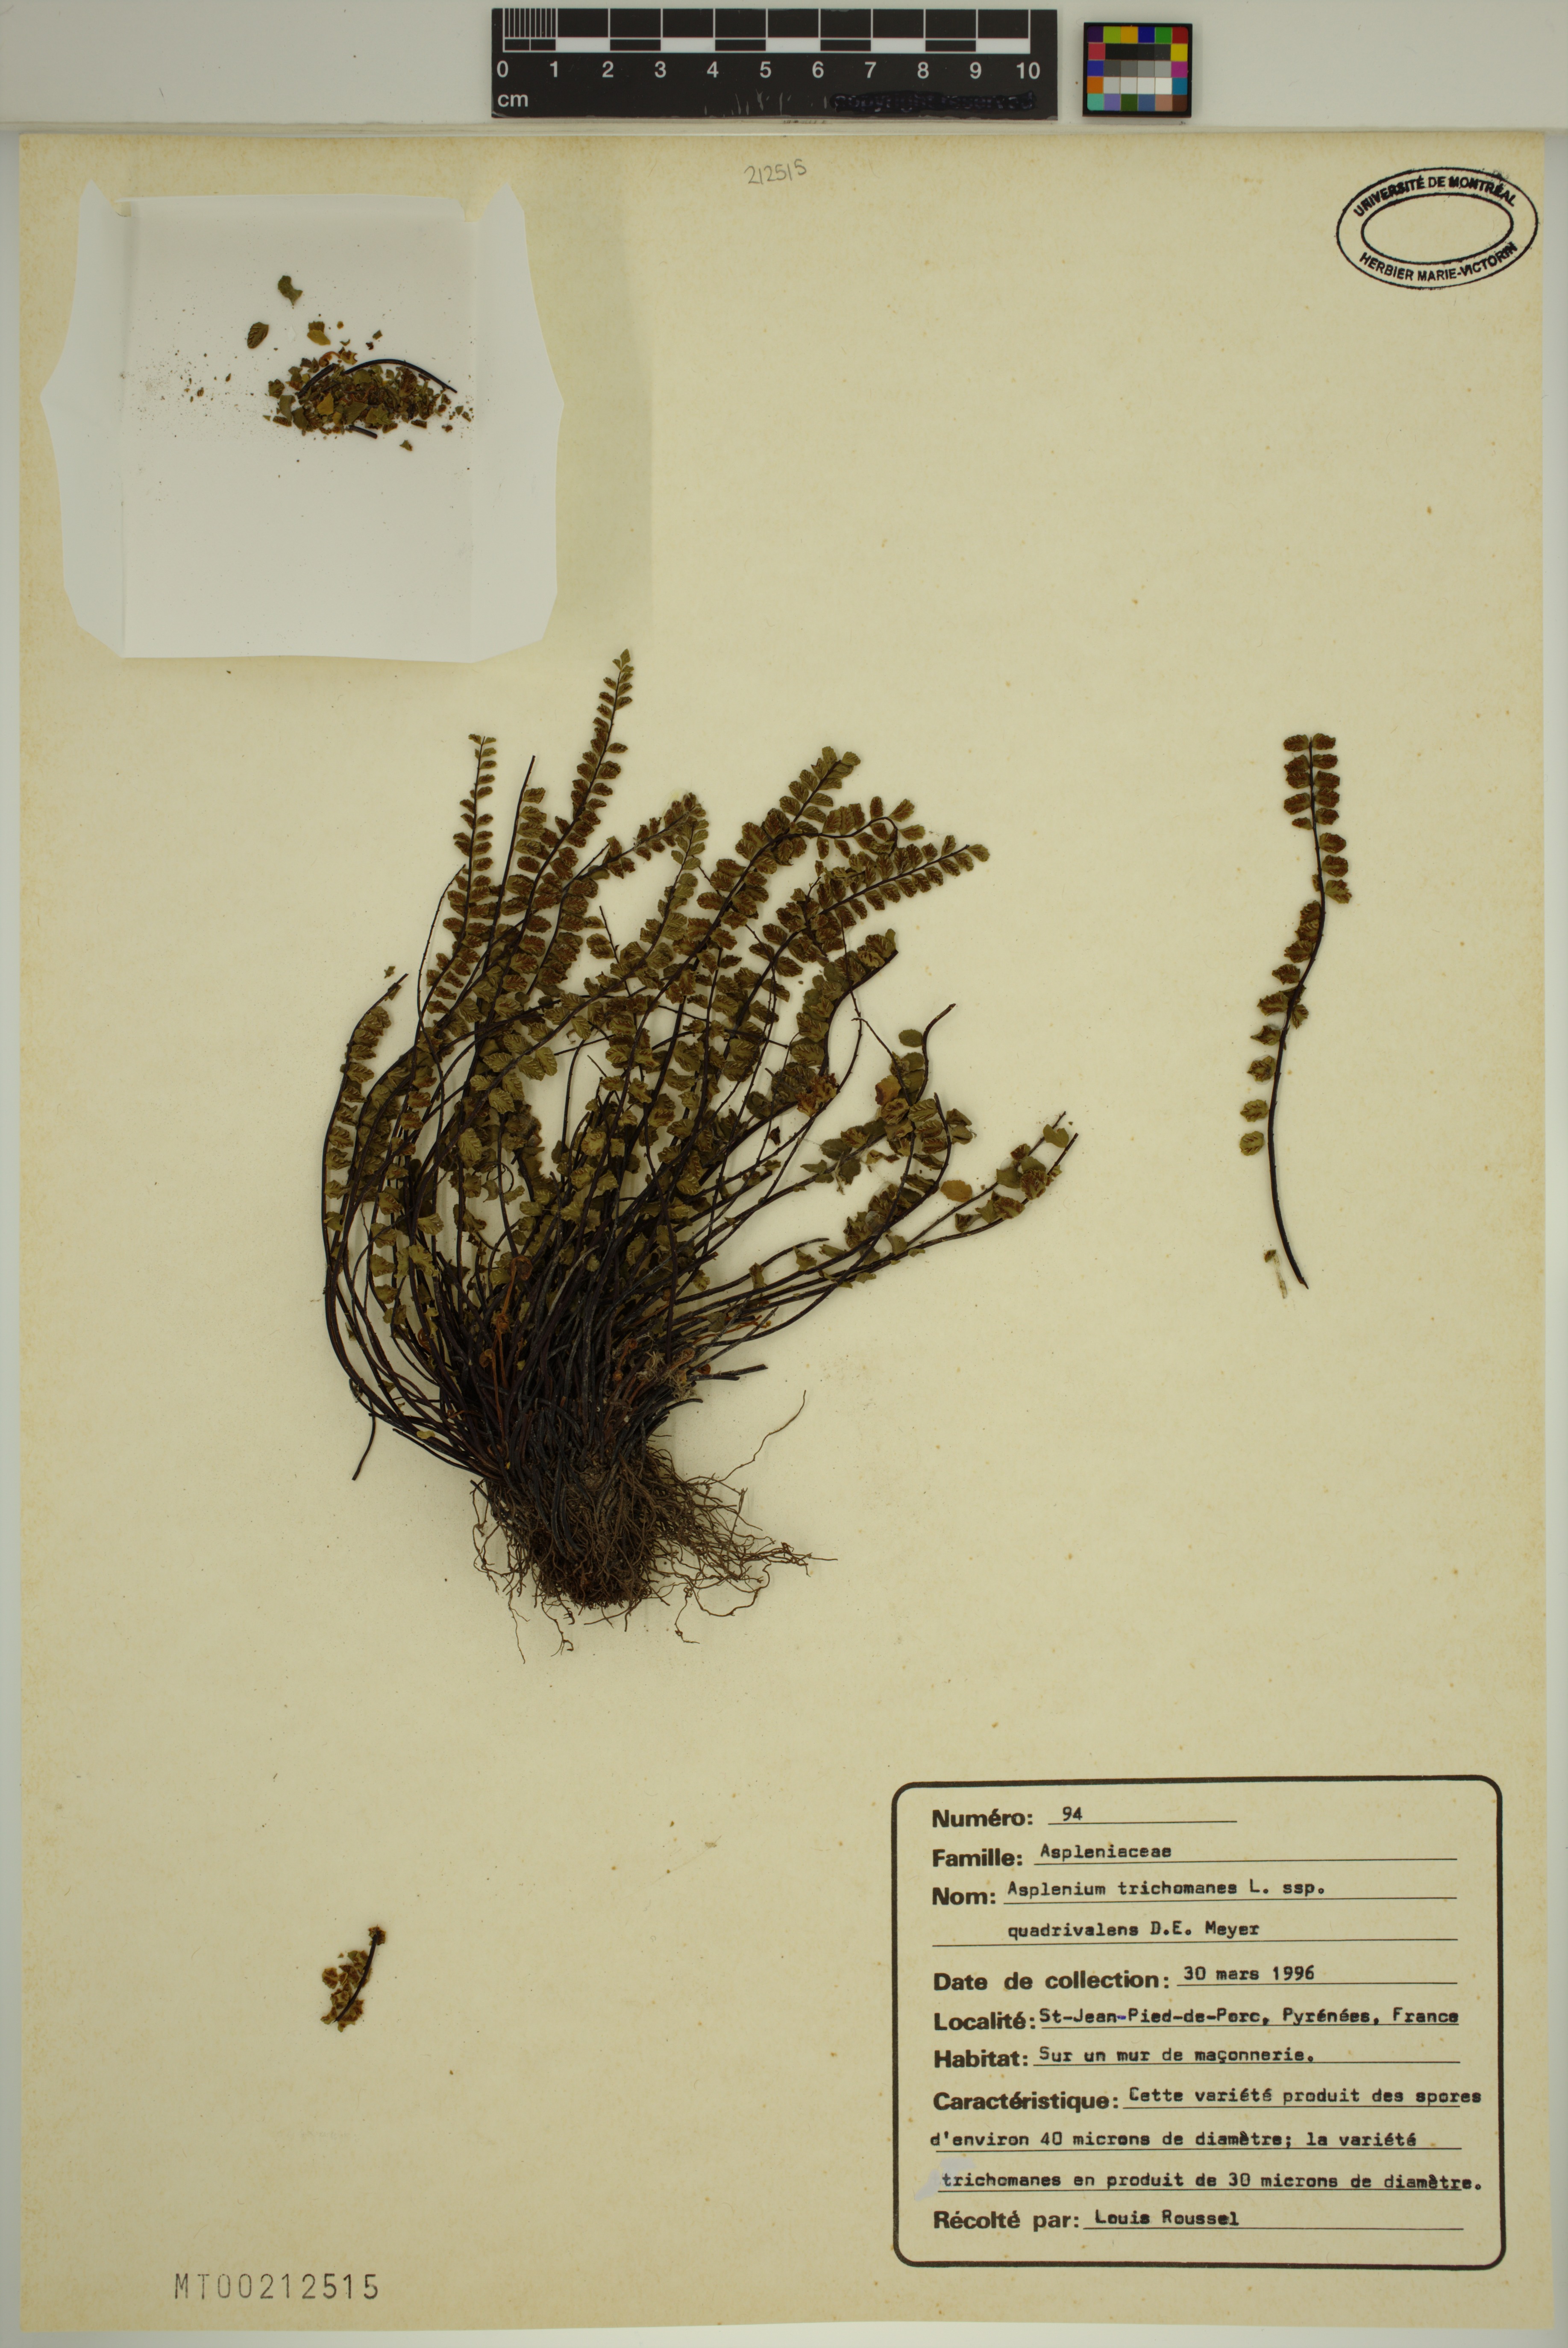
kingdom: Plantae
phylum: Tracheophyta
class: Polypodiopsida
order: Polypodiales
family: Aspleniaceae
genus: Asplenium
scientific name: Asplenium quadrivalens
